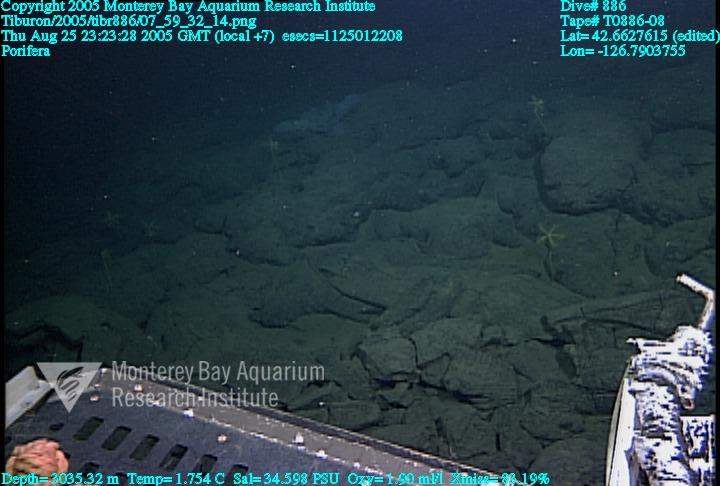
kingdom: Animalia
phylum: Porifera
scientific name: Porifera
